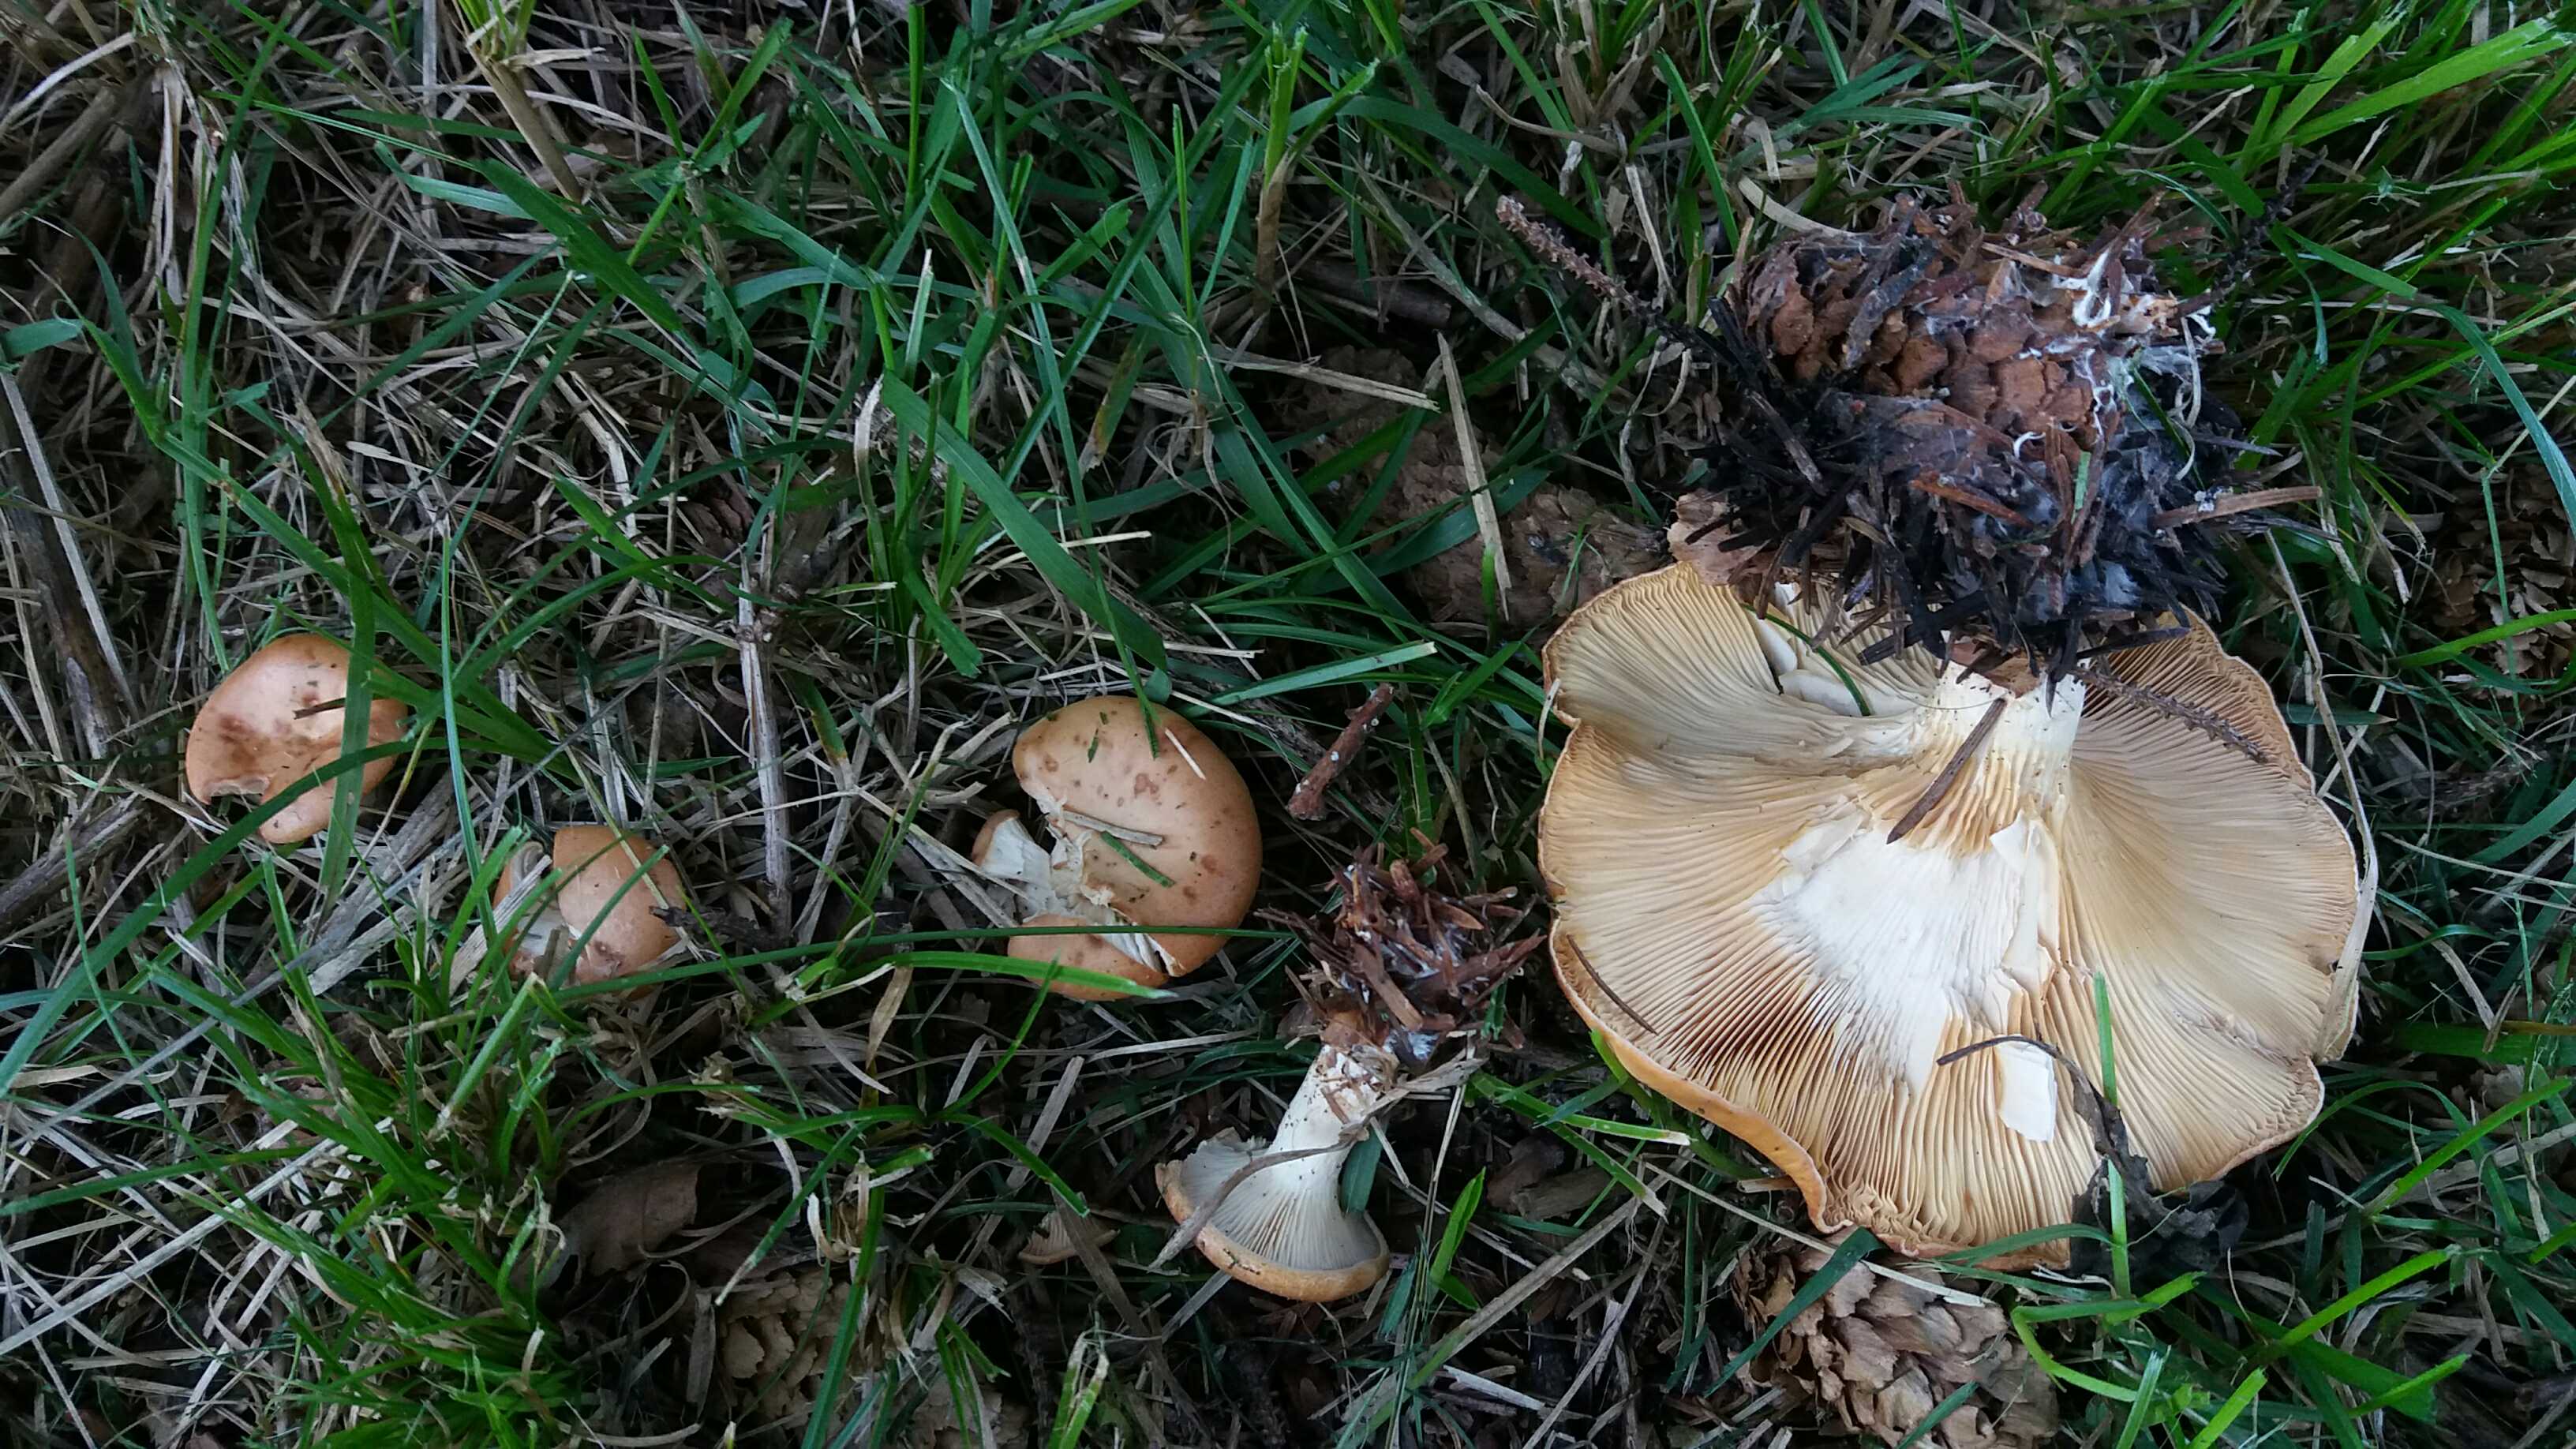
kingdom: Fungi
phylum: Basidiomycota
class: Agaricomycetes
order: Agaricales
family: Tricholomataceae
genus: Paralepista
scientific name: Paralepista
